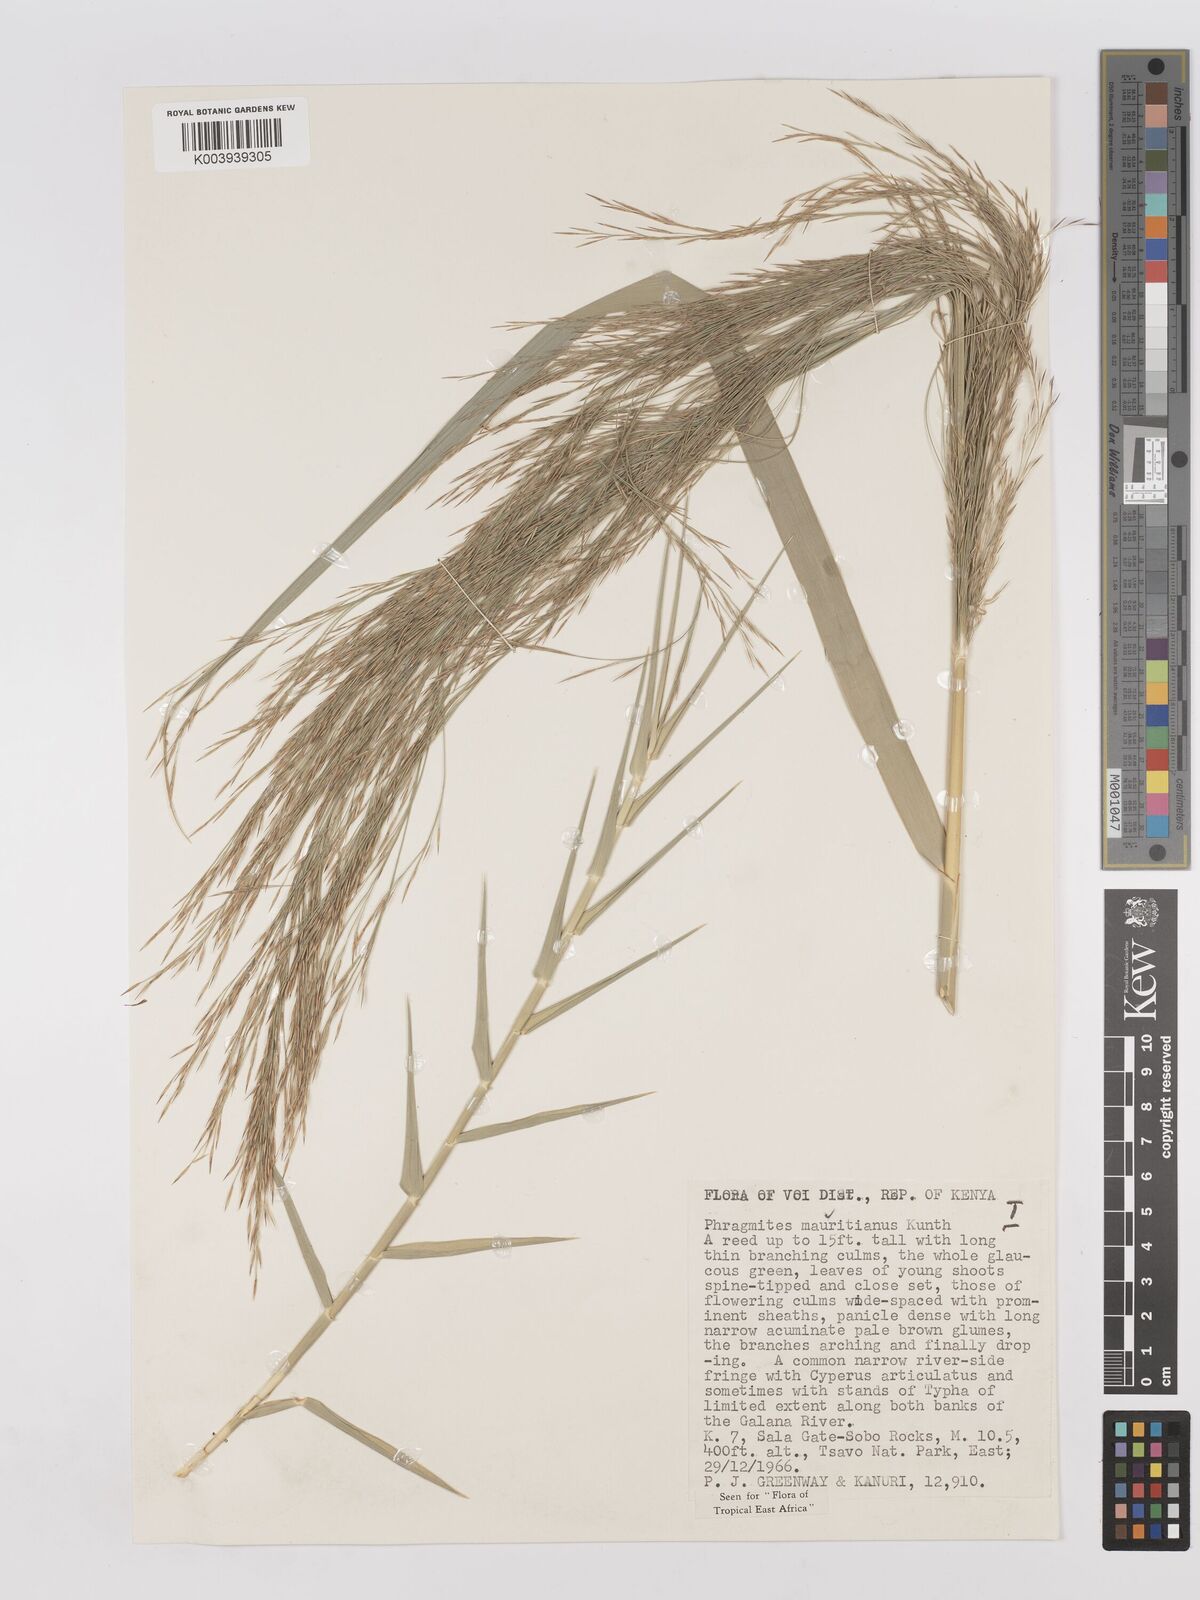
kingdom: Plantae
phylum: Tracheophyta
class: Liliopsida
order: Poales
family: Poaceae
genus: Phragmites
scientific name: Phragmites mauritianus
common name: Reed grass
